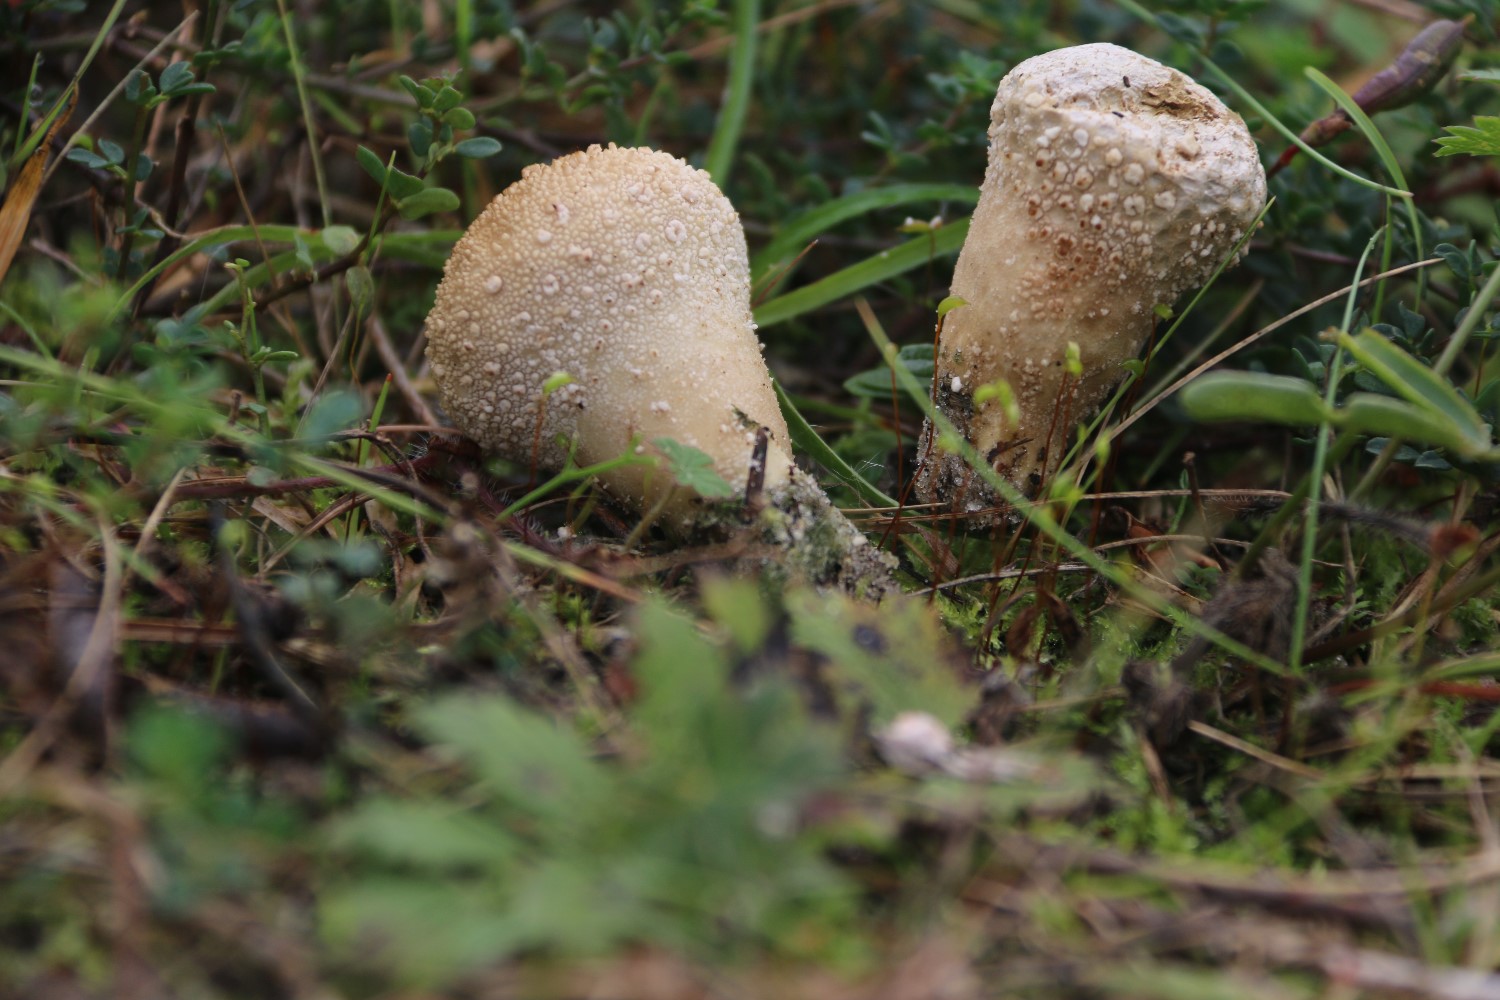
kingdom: Fungi
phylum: Basidiomycota
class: Agaricomycetes
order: Agaricales
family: Agaricaceae
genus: Lycoperdon
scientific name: Lycoperdon
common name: støvbold
